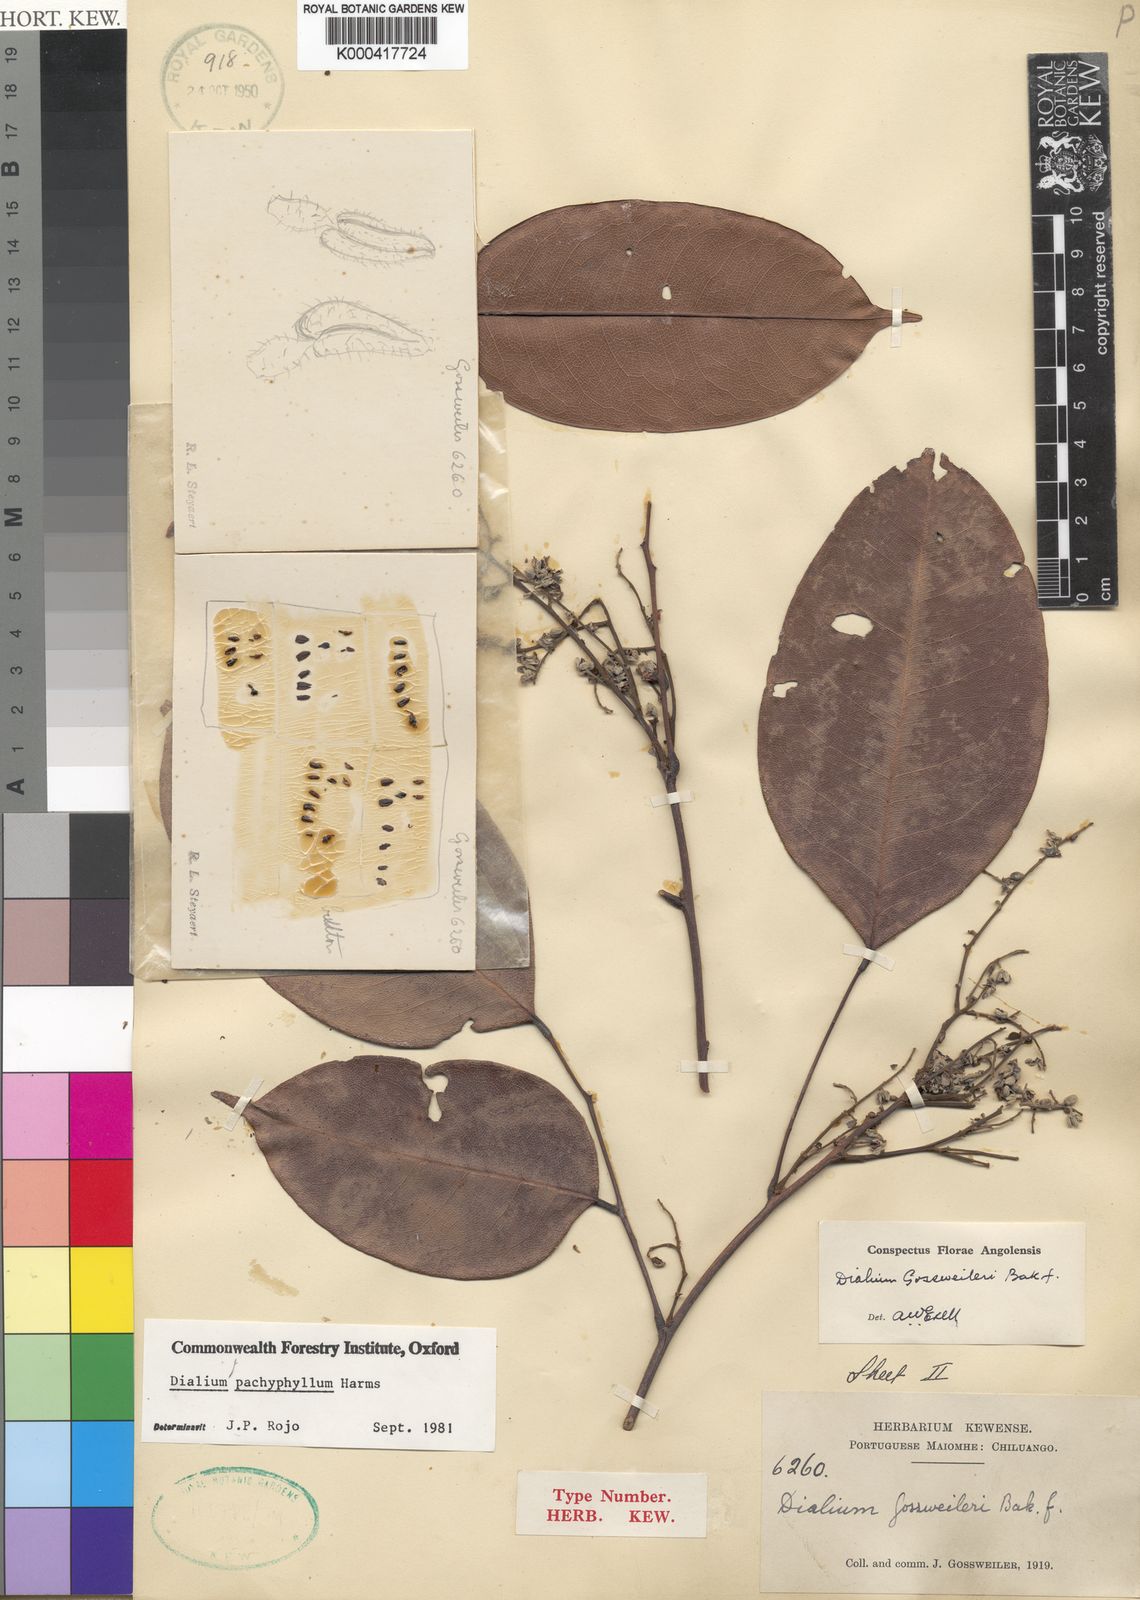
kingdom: Plantae
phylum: Tracheophyta
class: Magnoliopsida
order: Fabales
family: Fabaceae
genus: Dialium
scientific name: Dialium pachyphyllum
